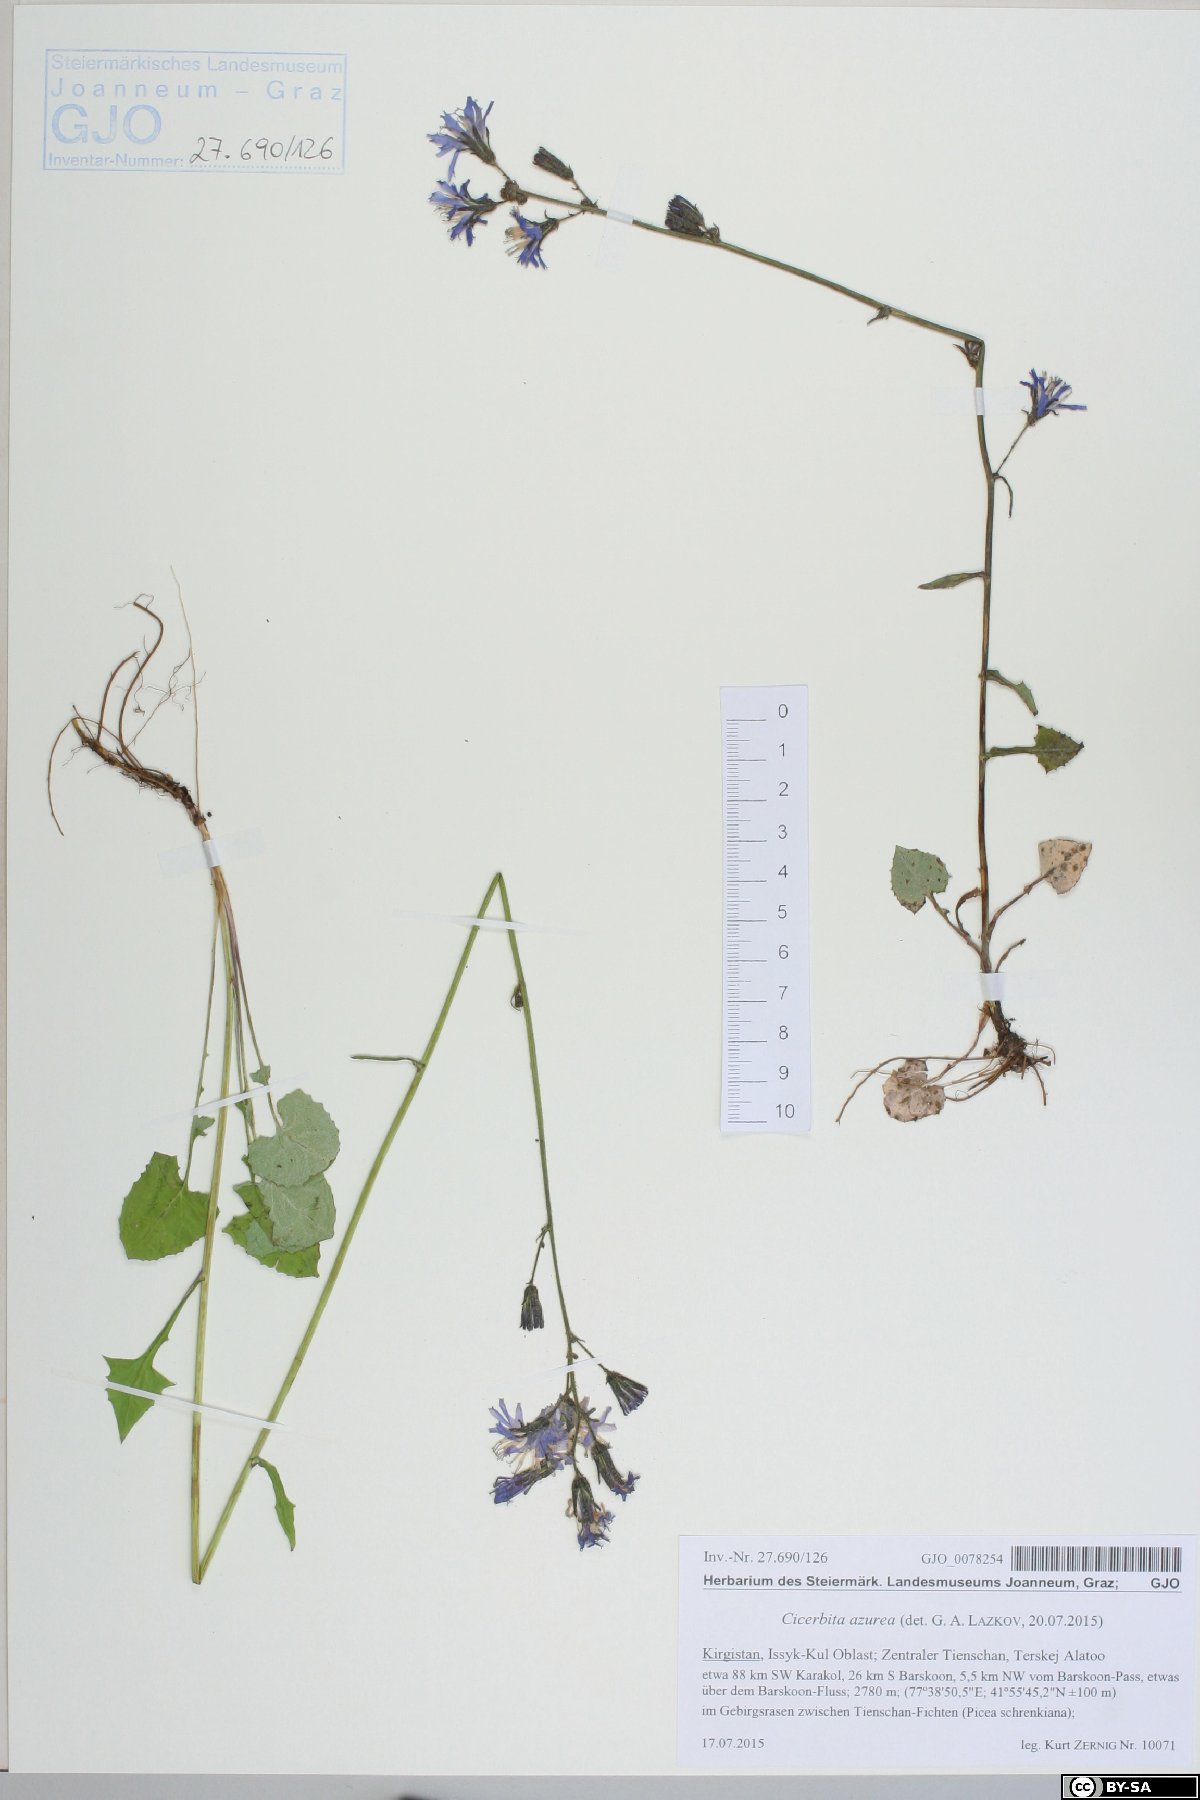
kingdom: Plantae
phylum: Tracheophyta
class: Magnoliopsida
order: Asterales
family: Asteraceae
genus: Cicerbita
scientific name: Cicerbita azurea
